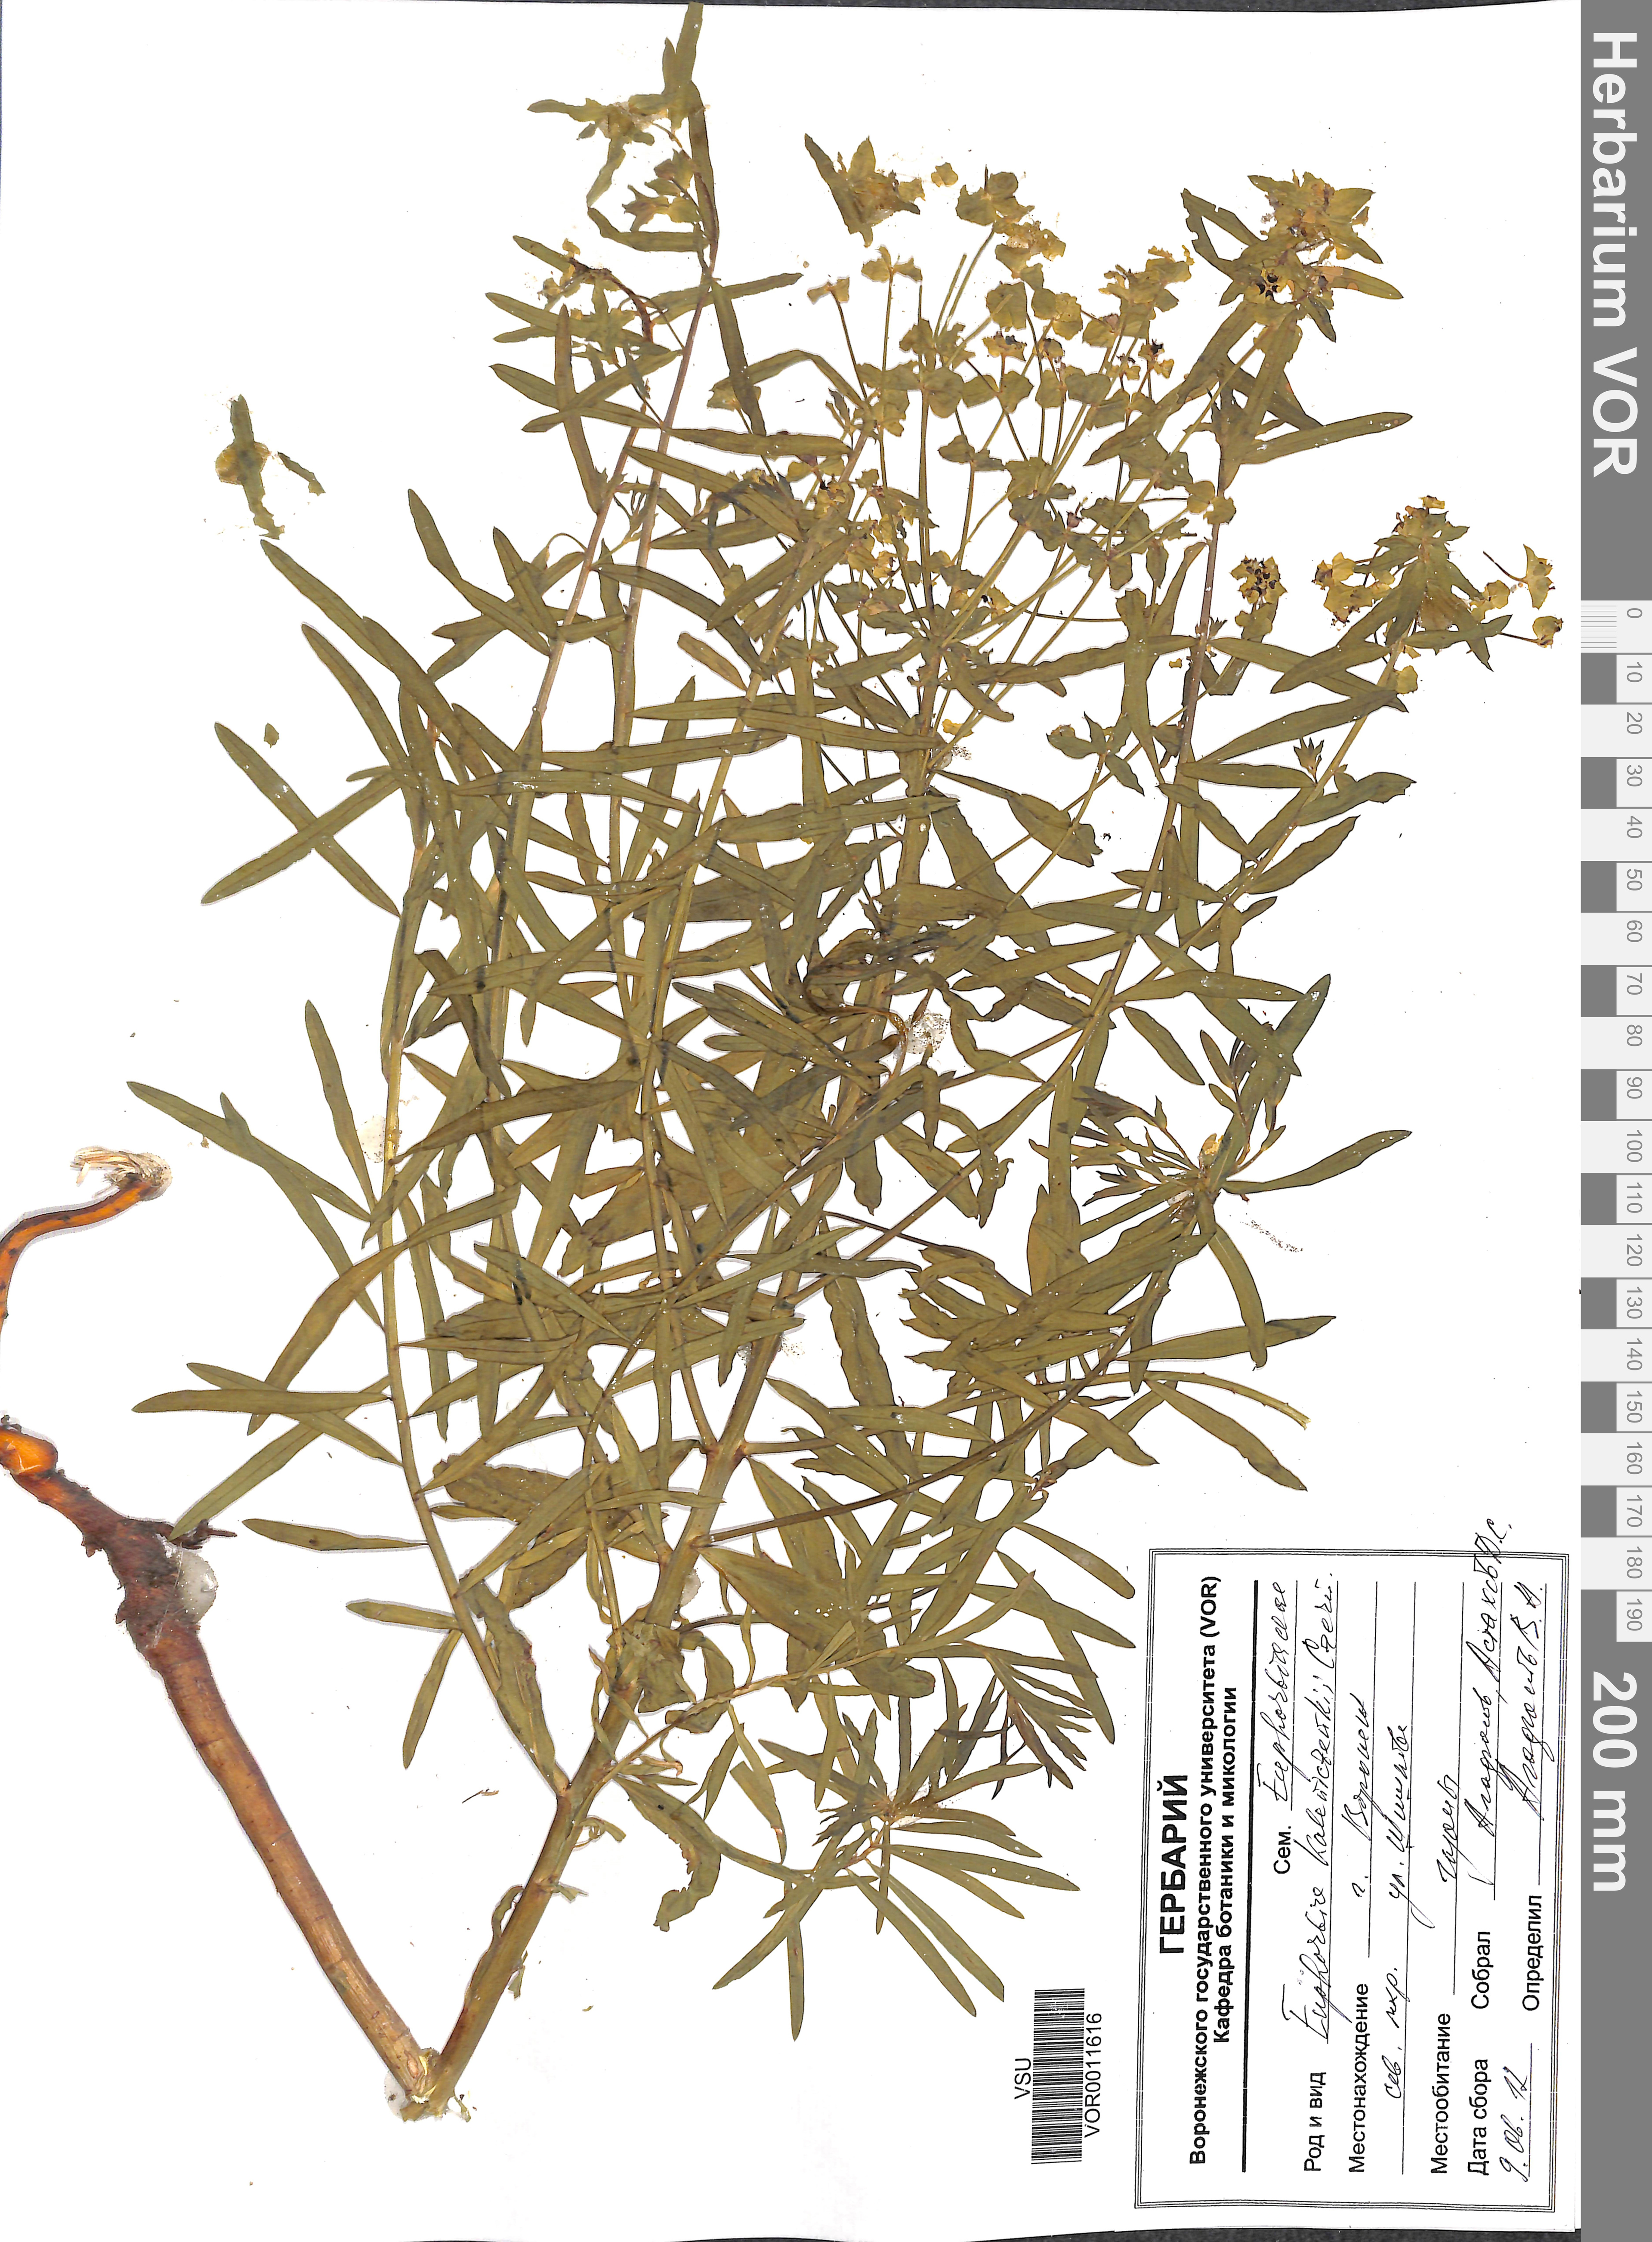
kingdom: Plantae
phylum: Tracheophyta
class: Magnoliopsida
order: Malpighiales
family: Euphorbiaceae
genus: Euphorbia
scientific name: Euphorbia esula
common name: Leafy spurge
